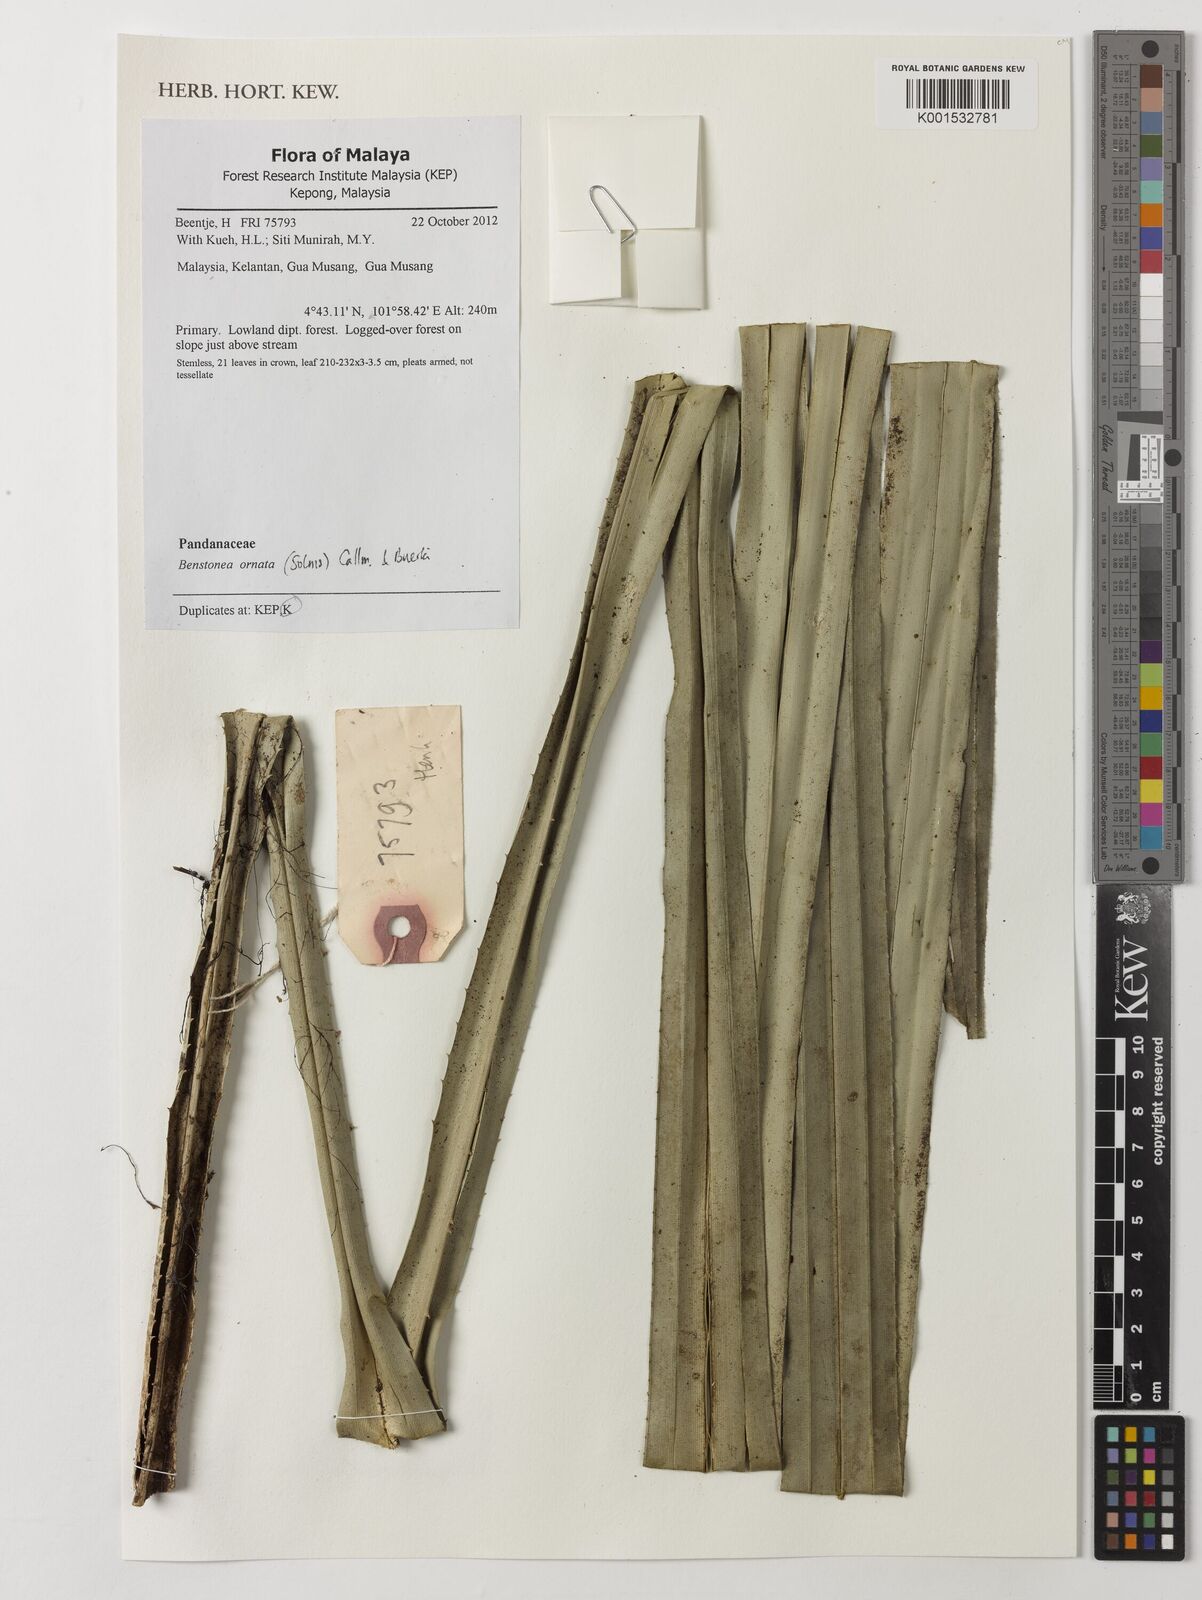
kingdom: Plantae
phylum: Tracheophyta
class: Liliopsida
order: Pandanales
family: Pandanaceae
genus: Pandanus
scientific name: Pandanus ornatus
